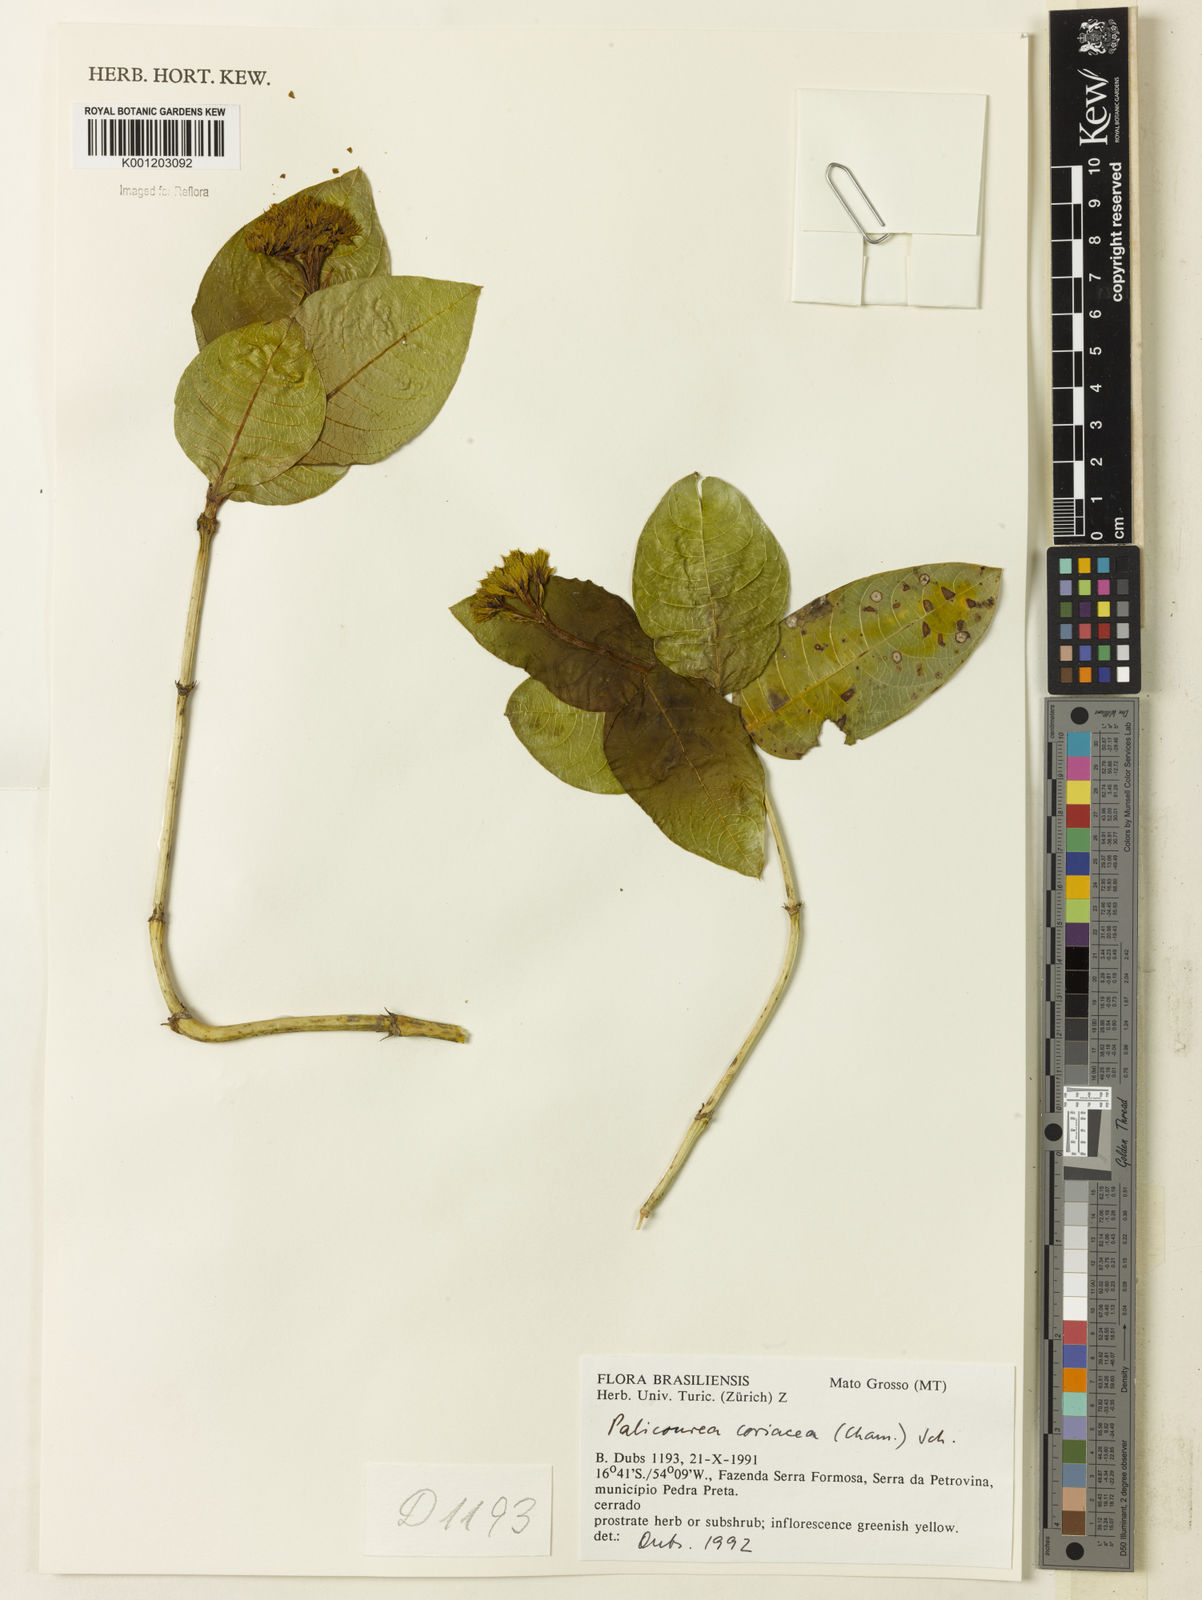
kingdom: Plantae
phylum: Tracheophyta
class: Magnoliopsida
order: Gentianales
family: Rubiaceae
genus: Palicourea
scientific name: Palicourea coriacea
